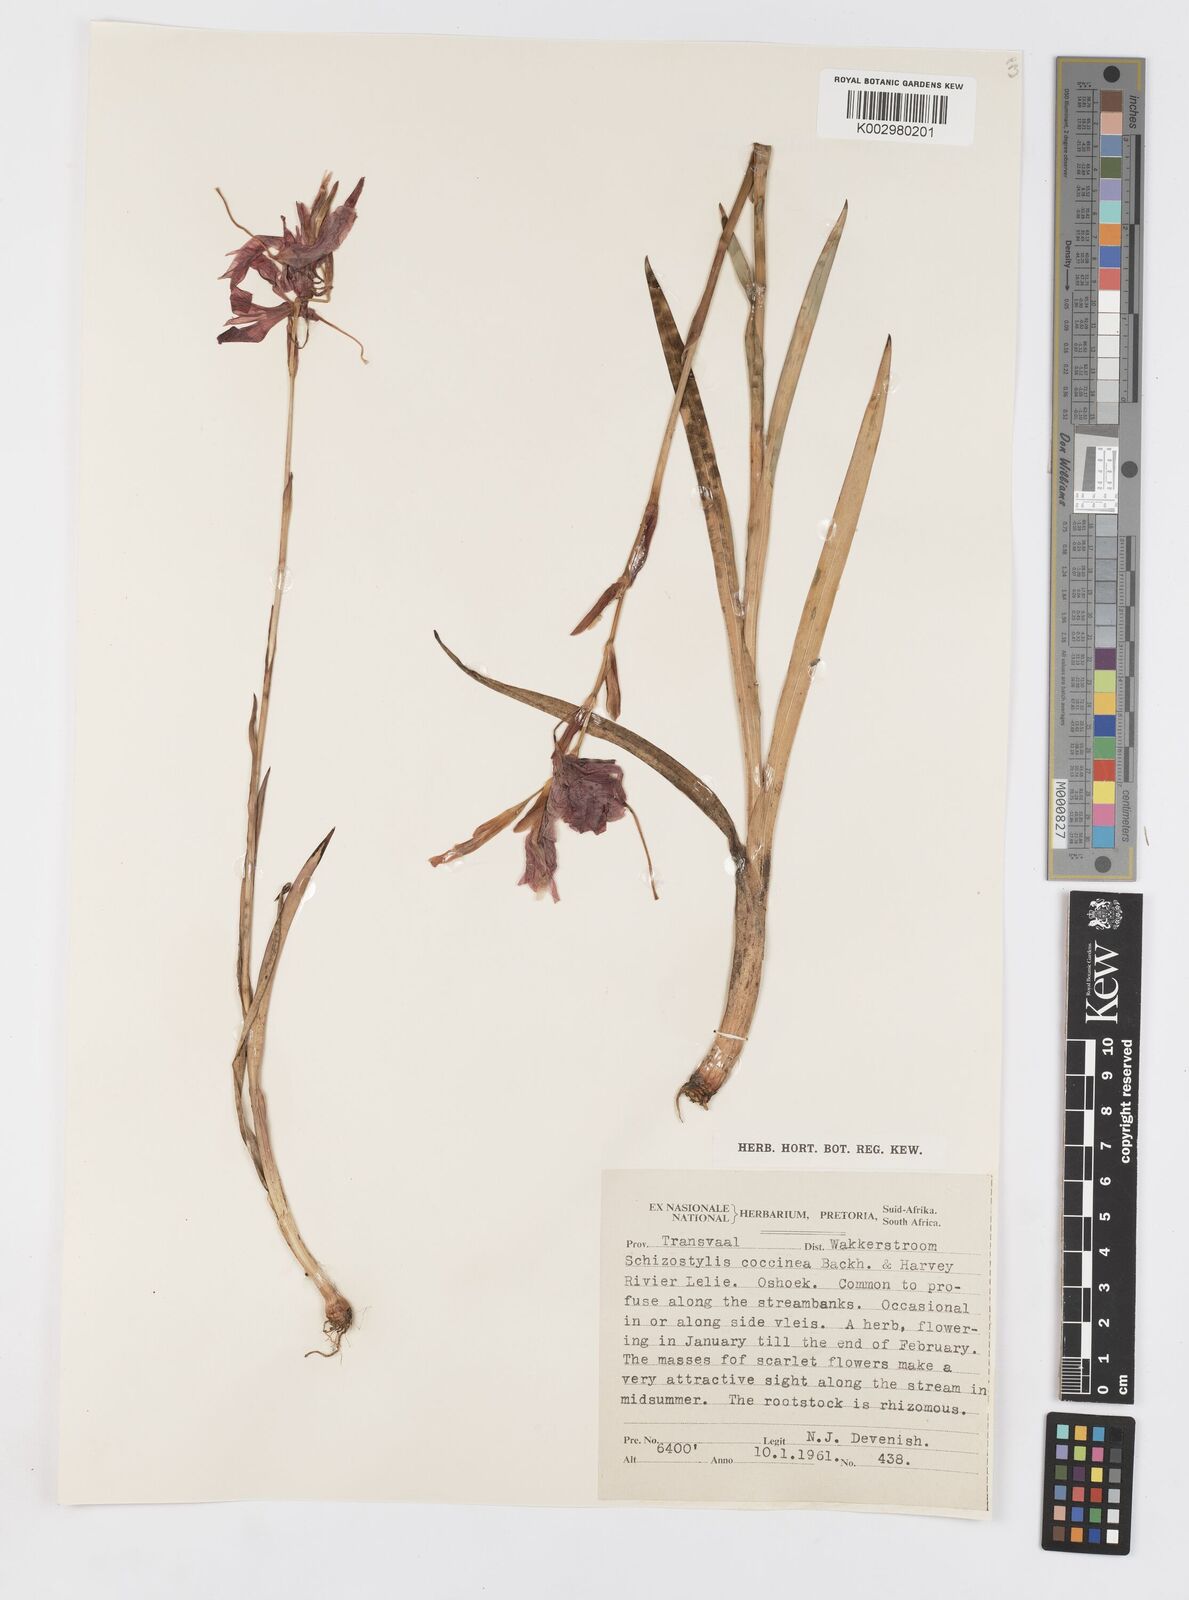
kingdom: Plantae
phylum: Tracheophyta
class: Liliopsida
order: Asparagales
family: Iridaceae
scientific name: Iridaceae
